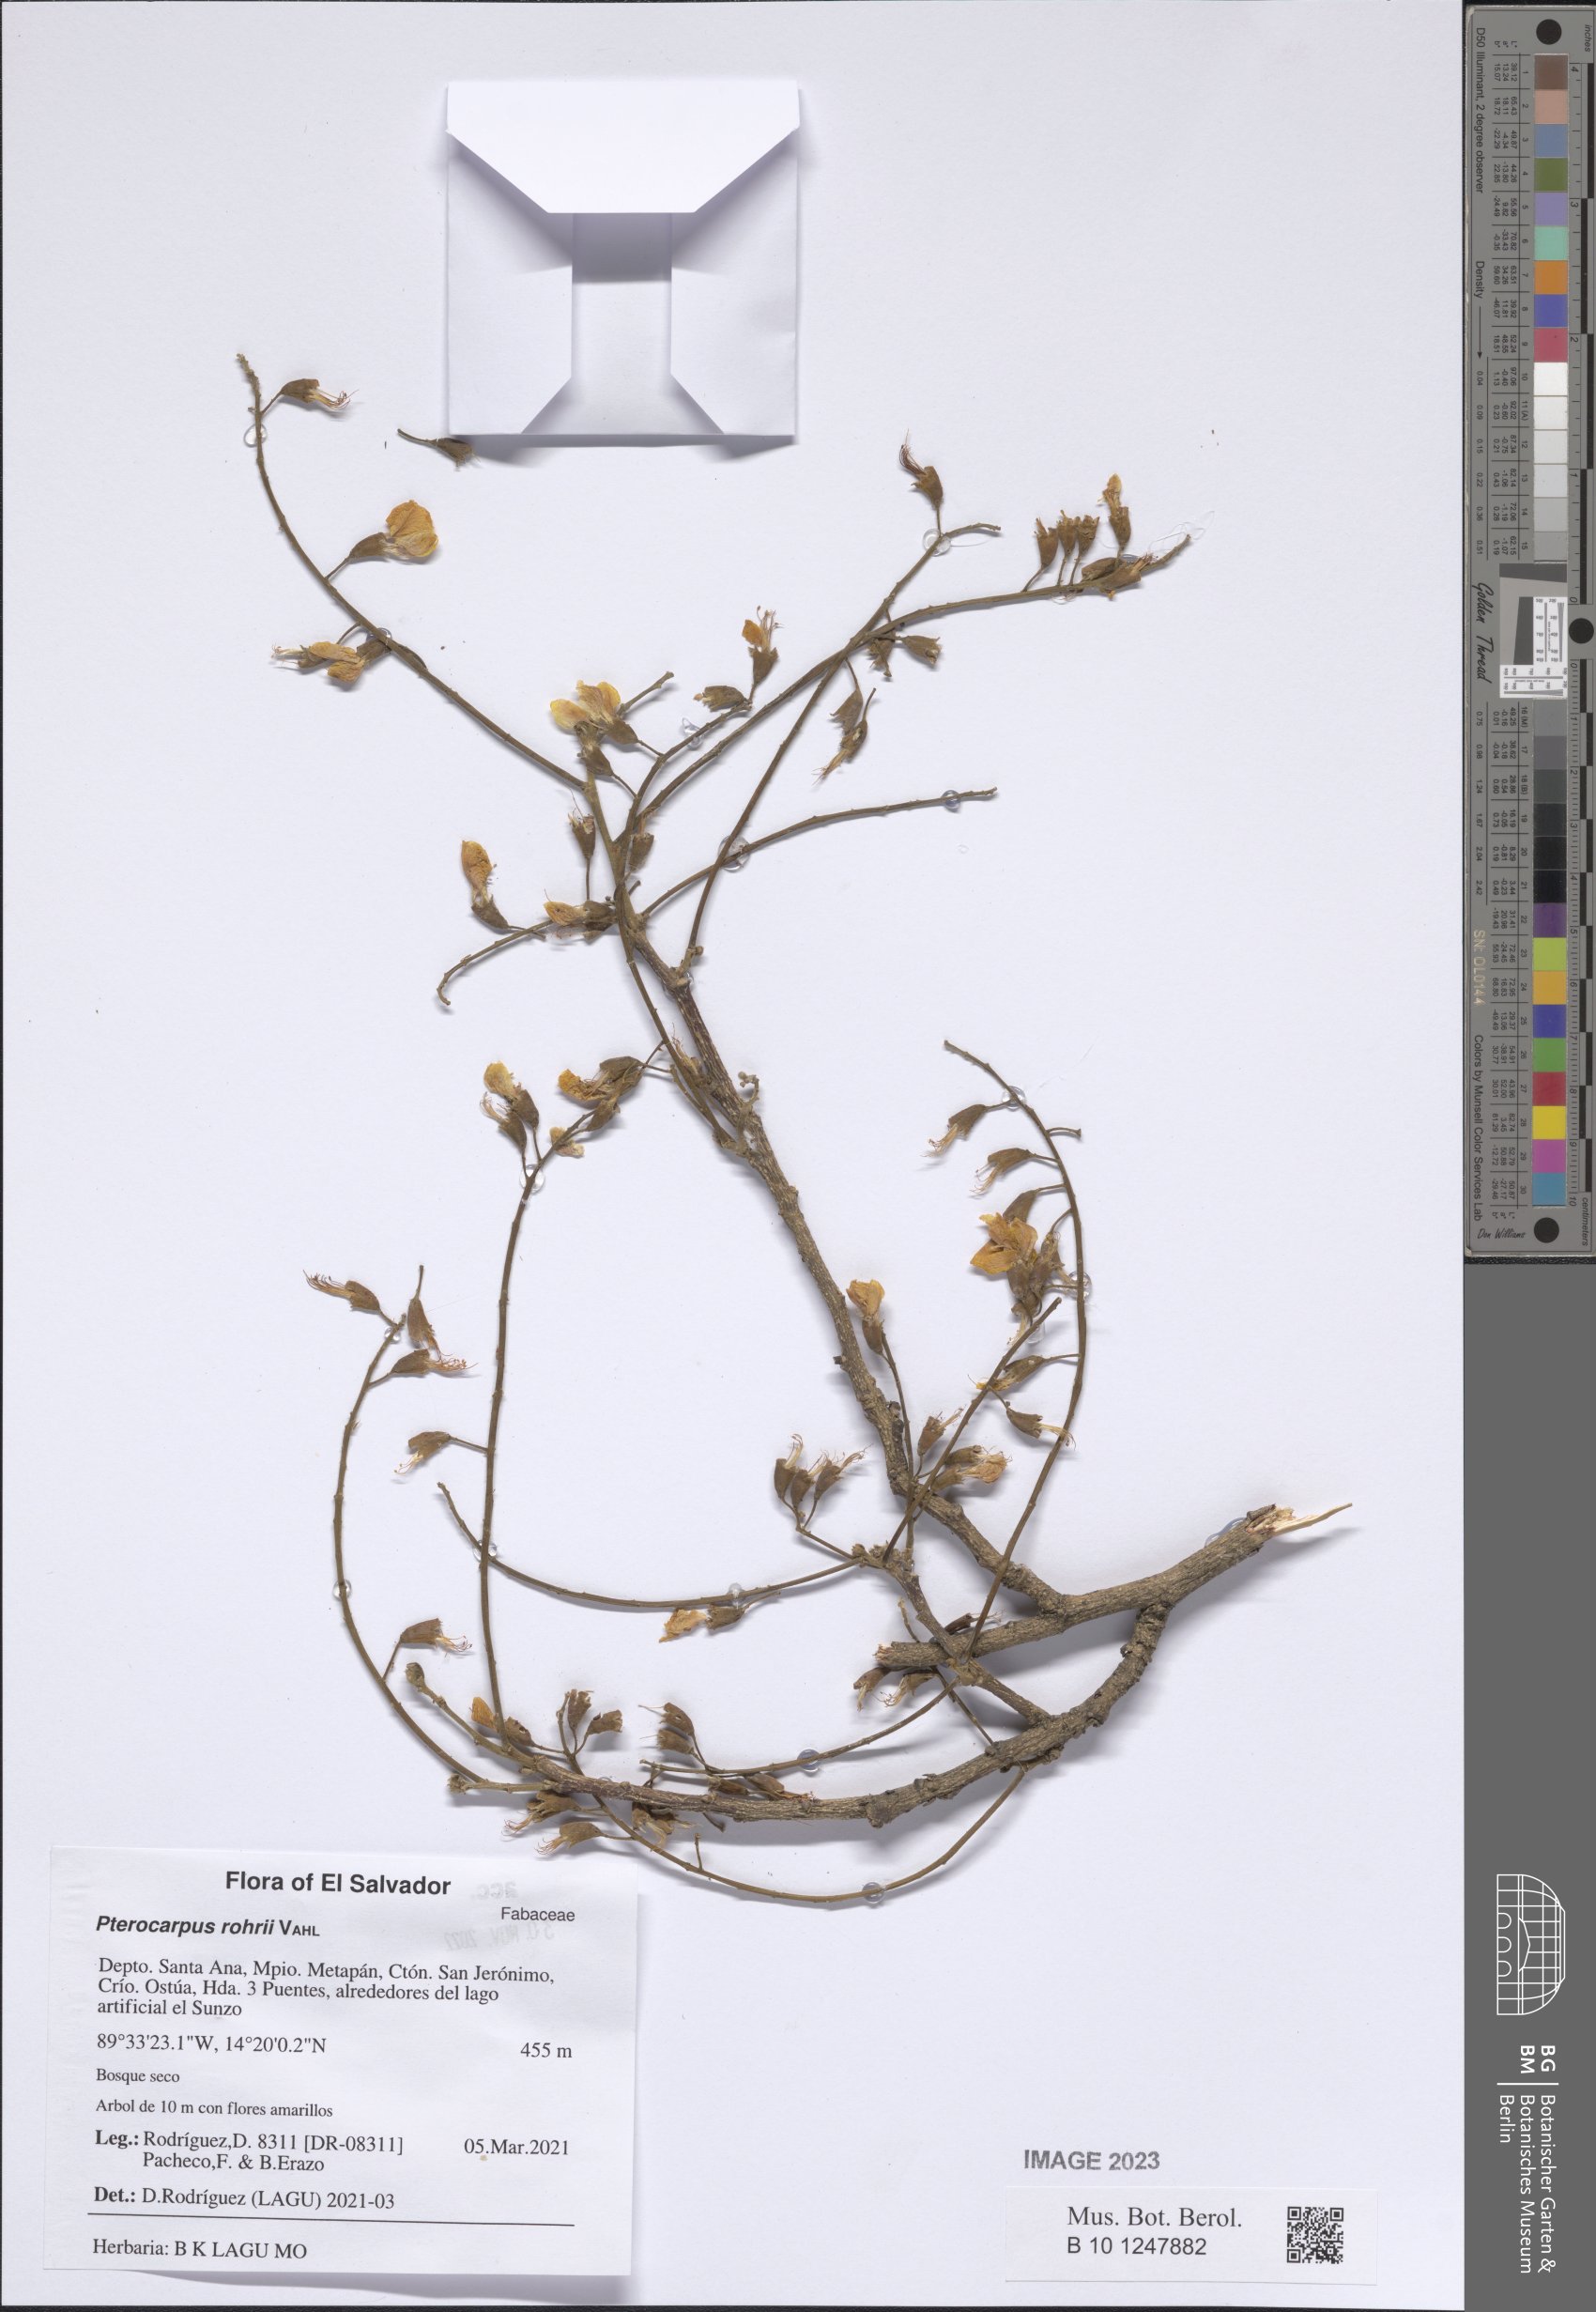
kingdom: Plantae
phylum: Tracheophyta
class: Magnoliopsida
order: Fabales
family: Fabaceae
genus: Pterocarpus
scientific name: Pterocarpus rohrii
